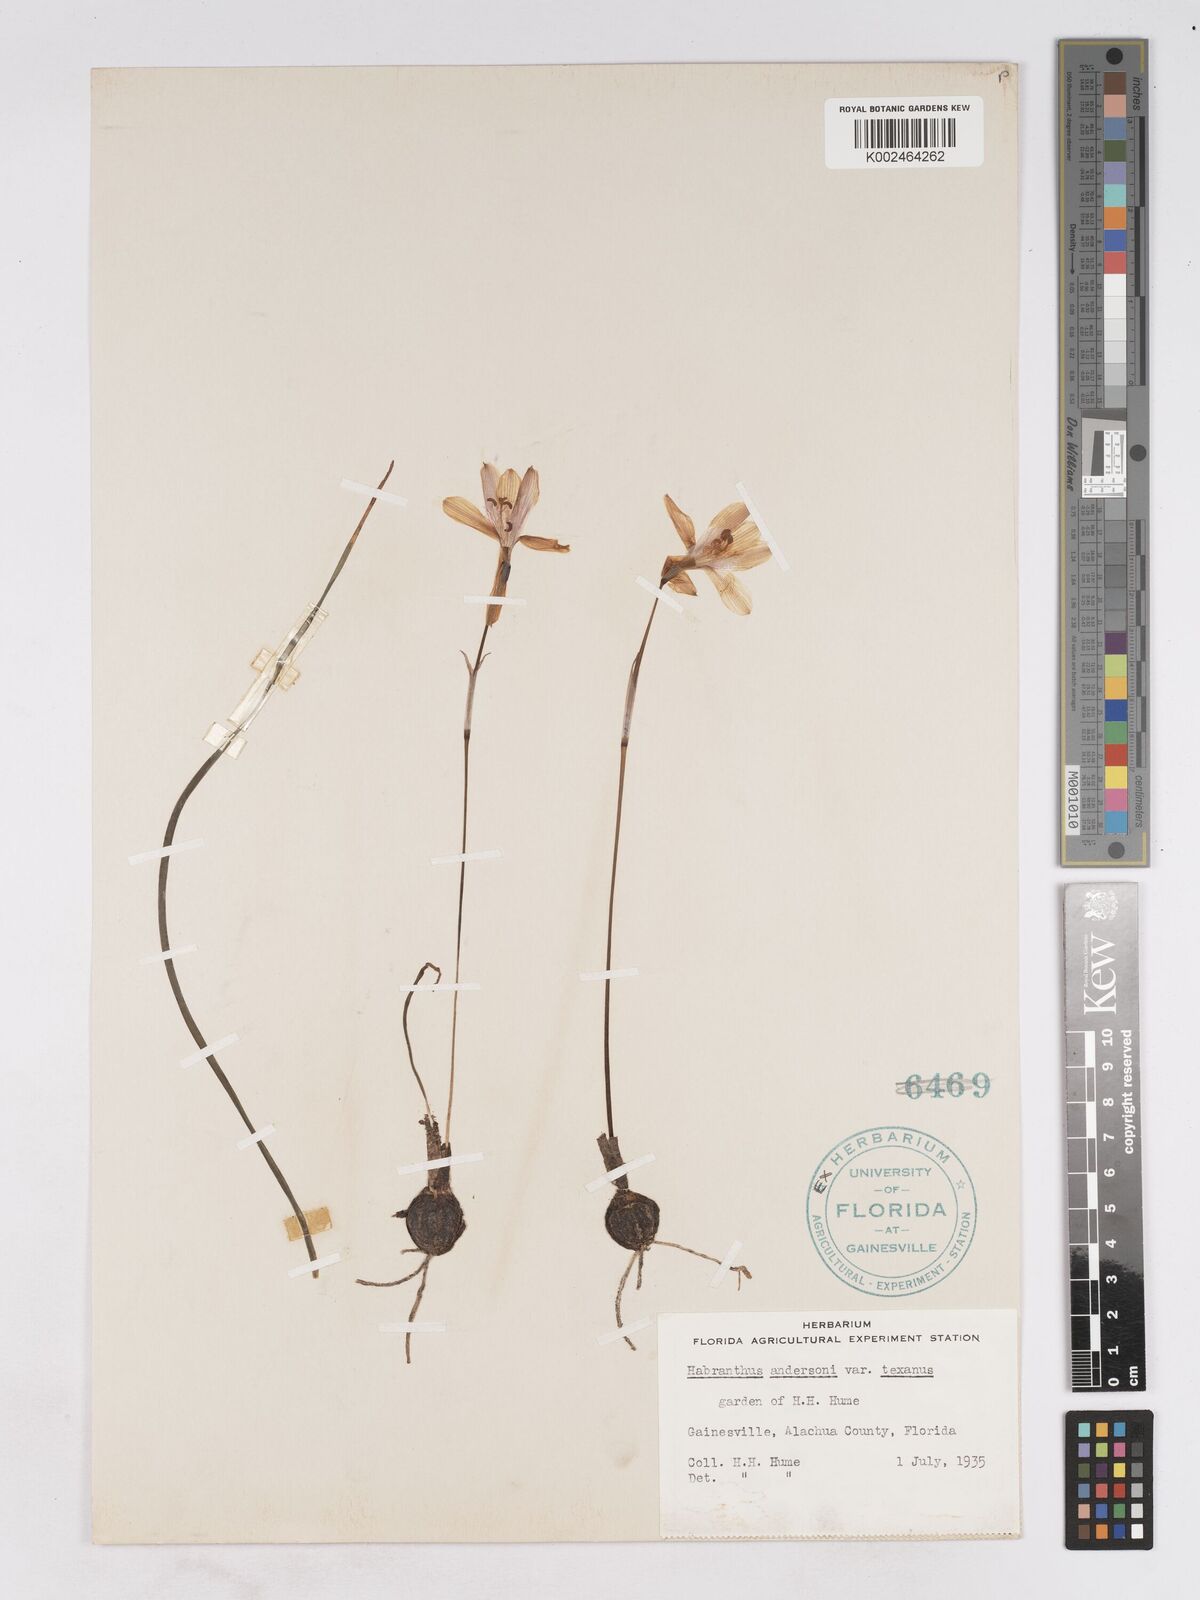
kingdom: Plantae
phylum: Tracheophyta
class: Liliopsida
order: Asparagales
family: Amaryllidaceae
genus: Zephyranthes
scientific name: Zephyranthes tubispatha
